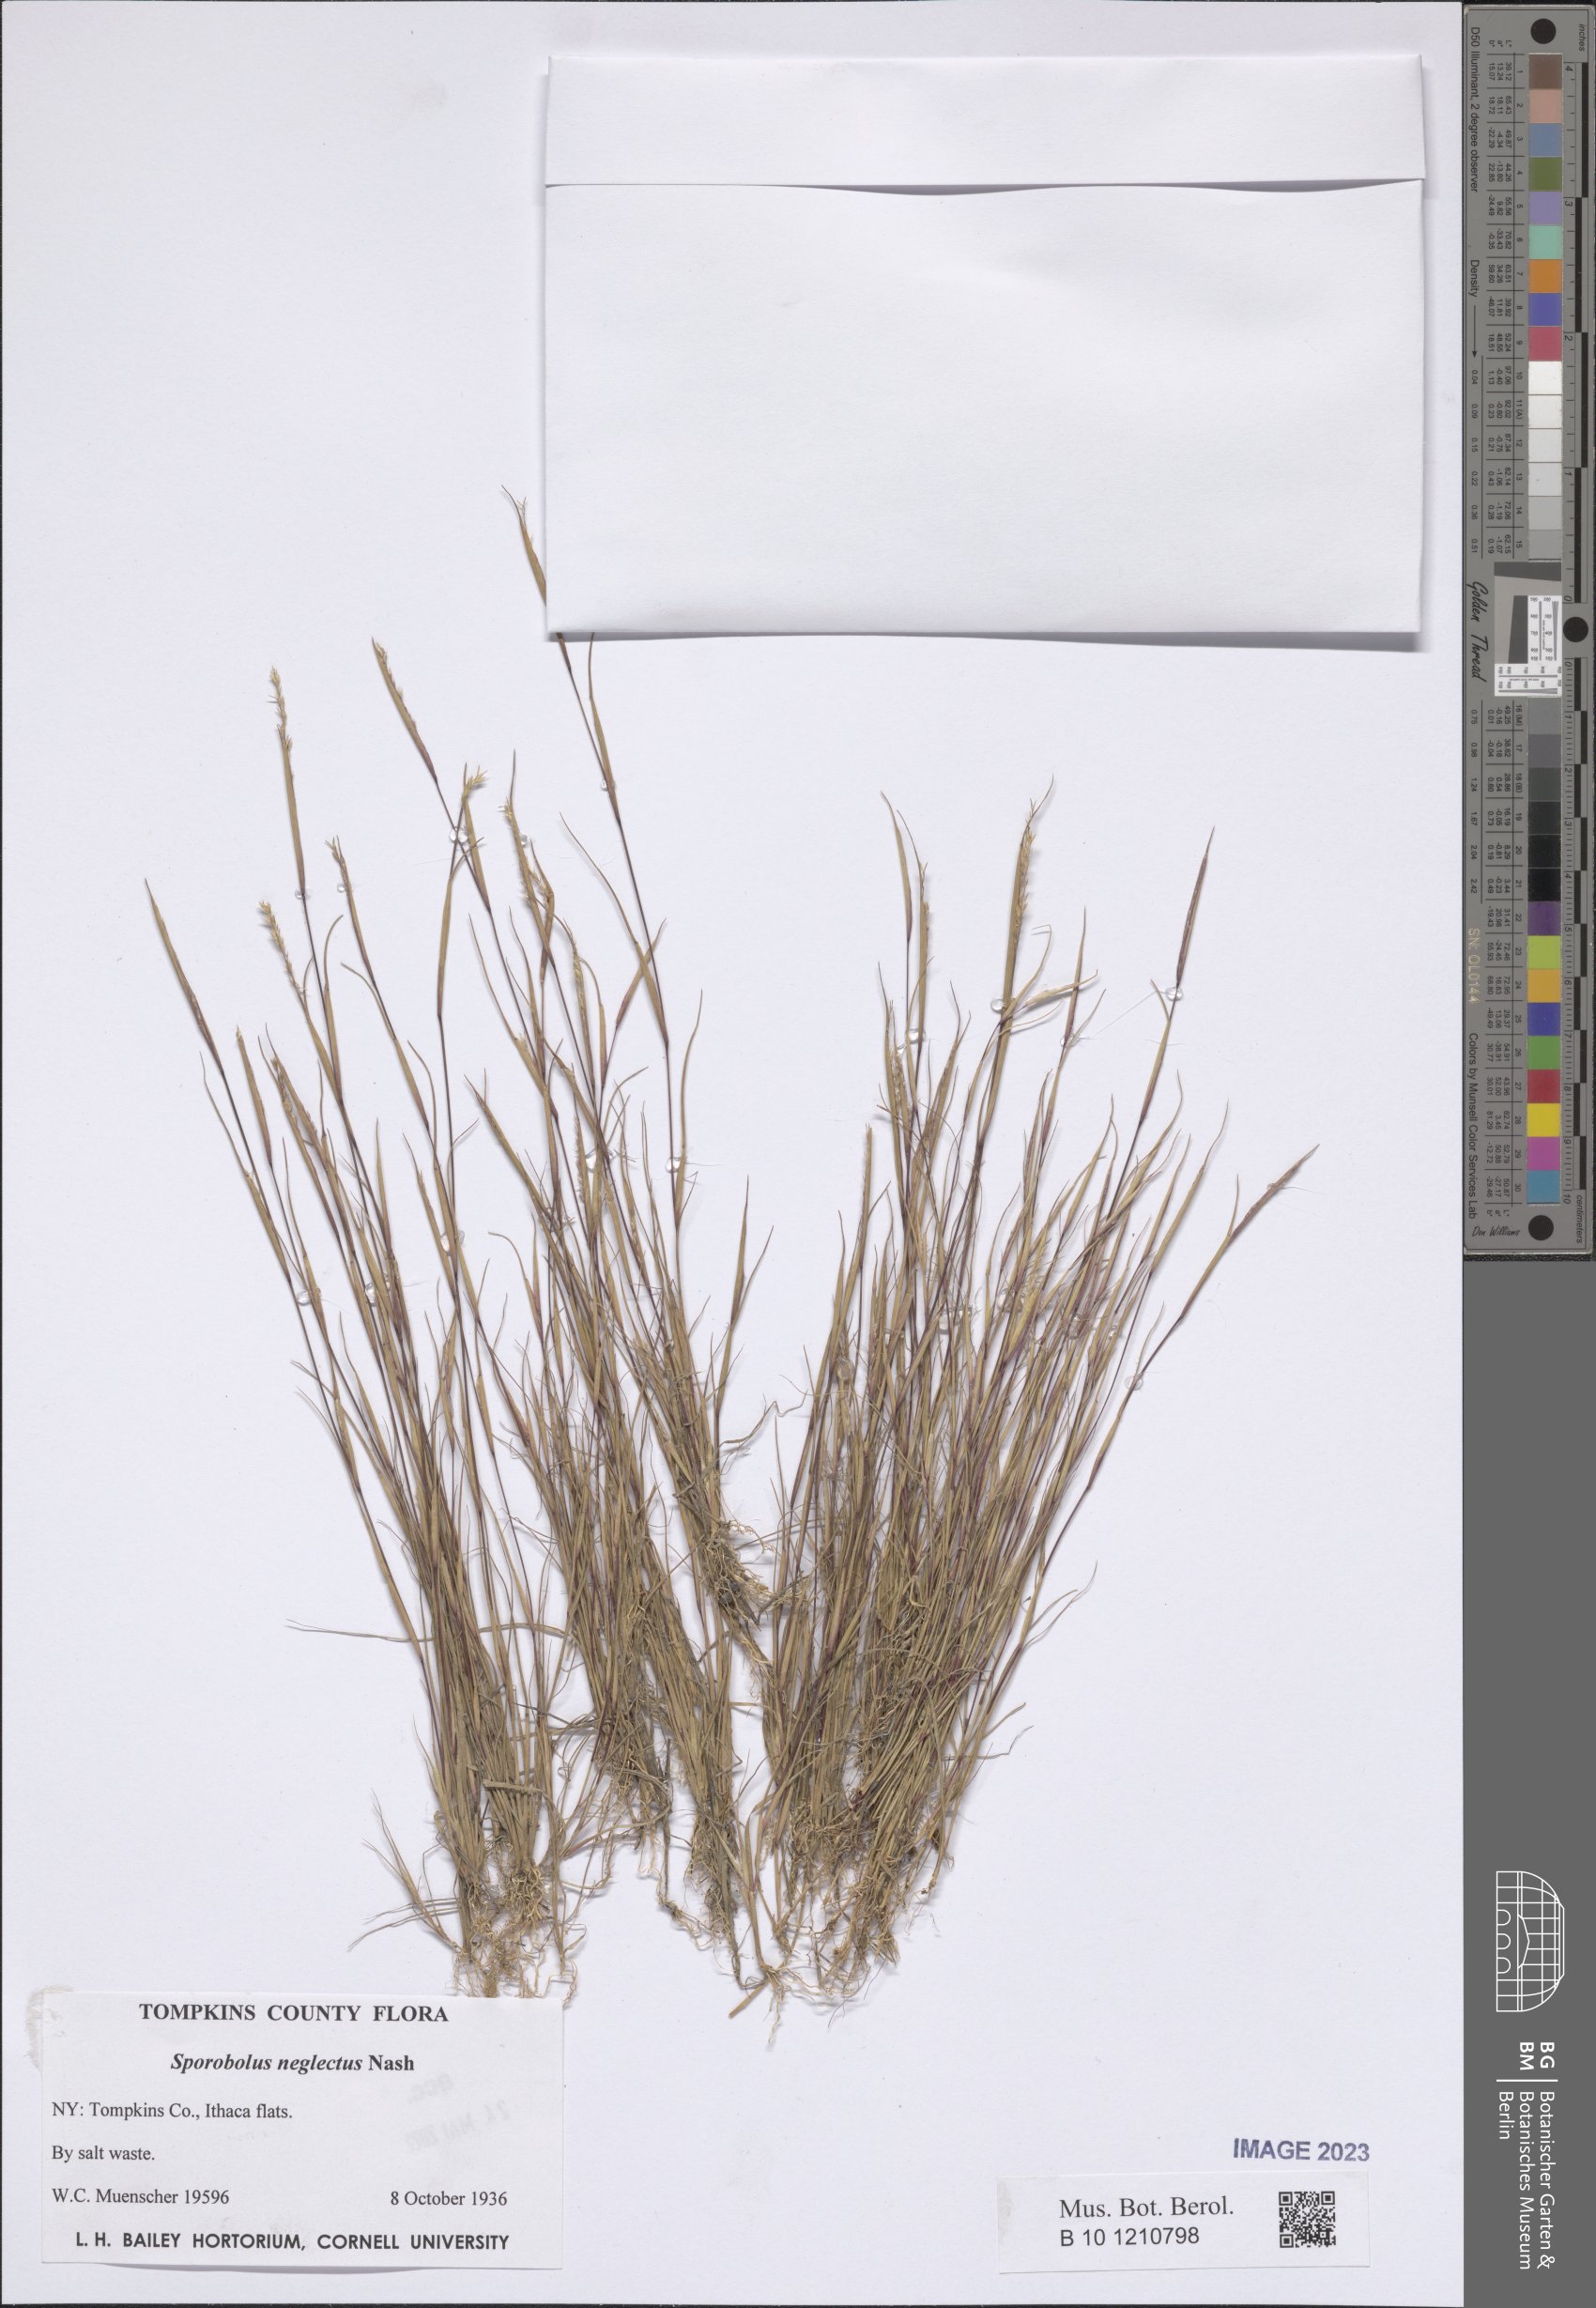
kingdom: Plantae
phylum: Tracheophyta
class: Liliopsida
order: Poales
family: Poaceae
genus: Sporobolus
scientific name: Sporobolus neglectus
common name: Annual dropseed
